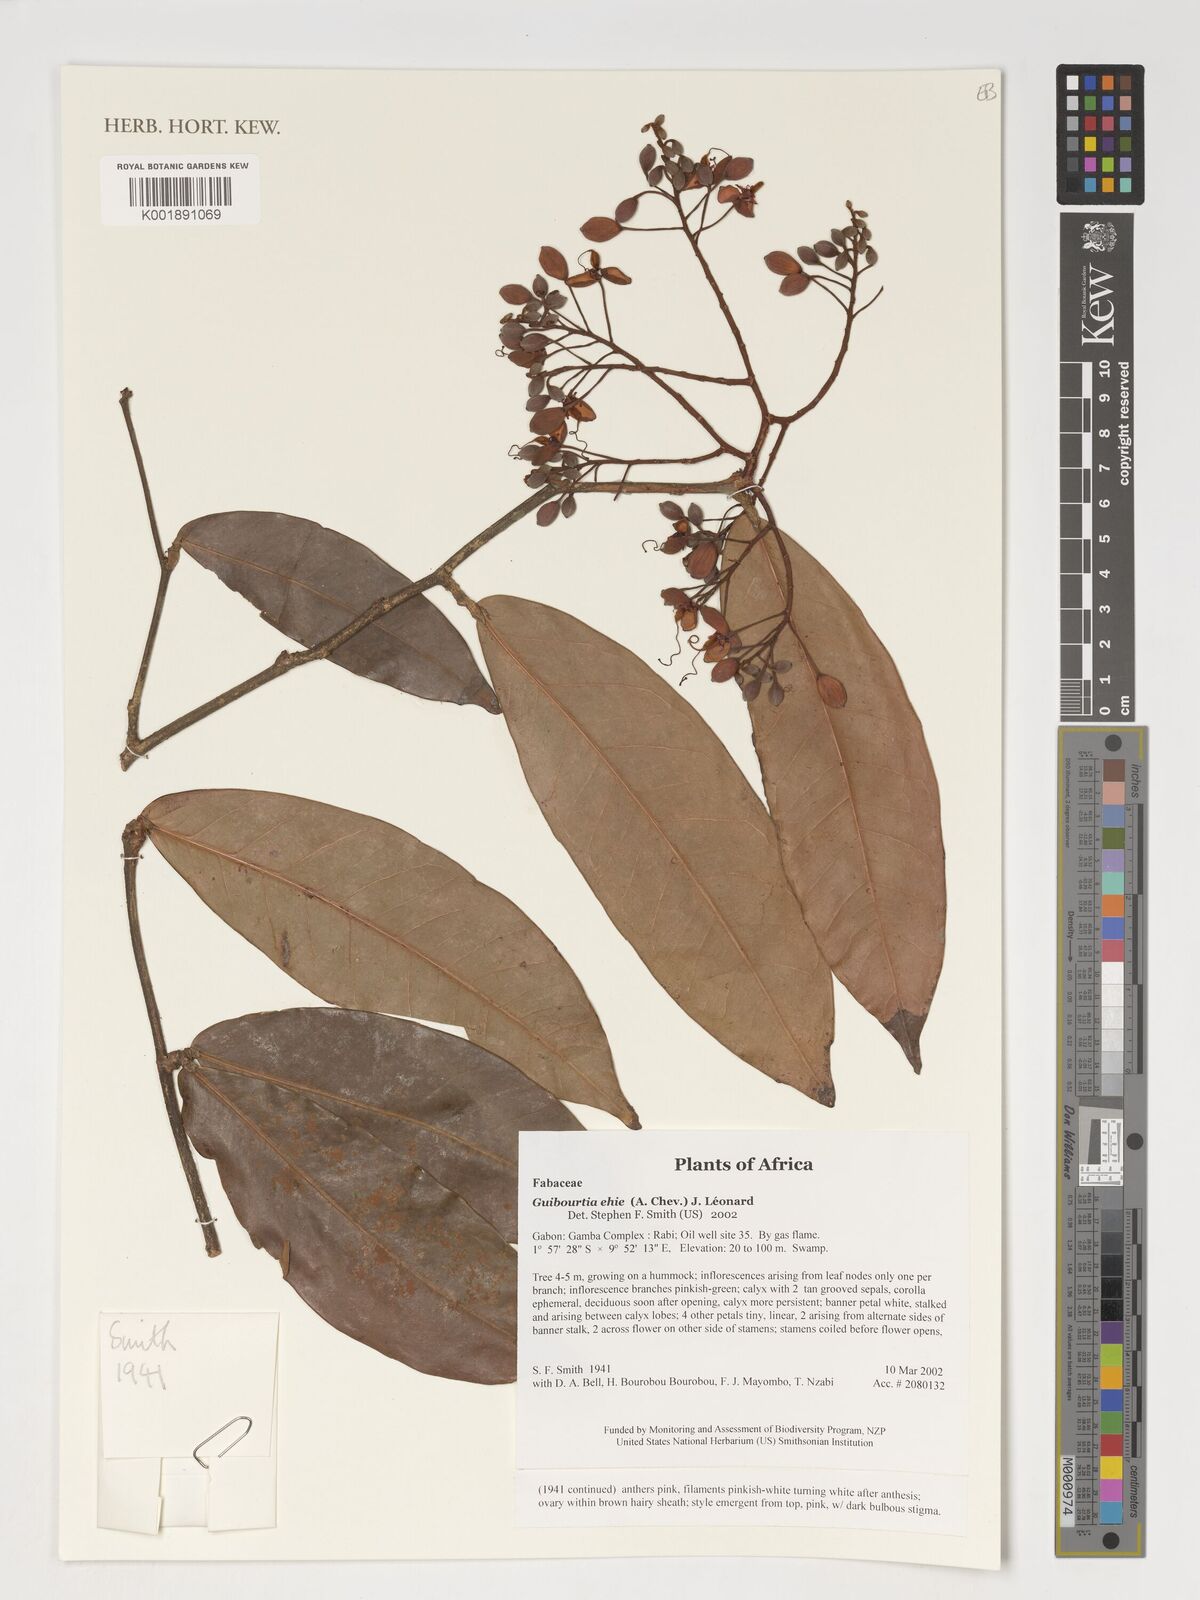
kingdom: Plantae
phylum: Tracheophyta
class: Magnoliopsida
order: Fabales
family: Fabaceae
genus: Gilbertiodendron
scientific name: Gilbertiodendron unijugum
